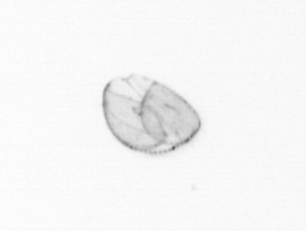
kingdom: Chromista
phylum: Ochrophyta
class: Bacillariophyceae
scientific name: Bacillariophyceae
